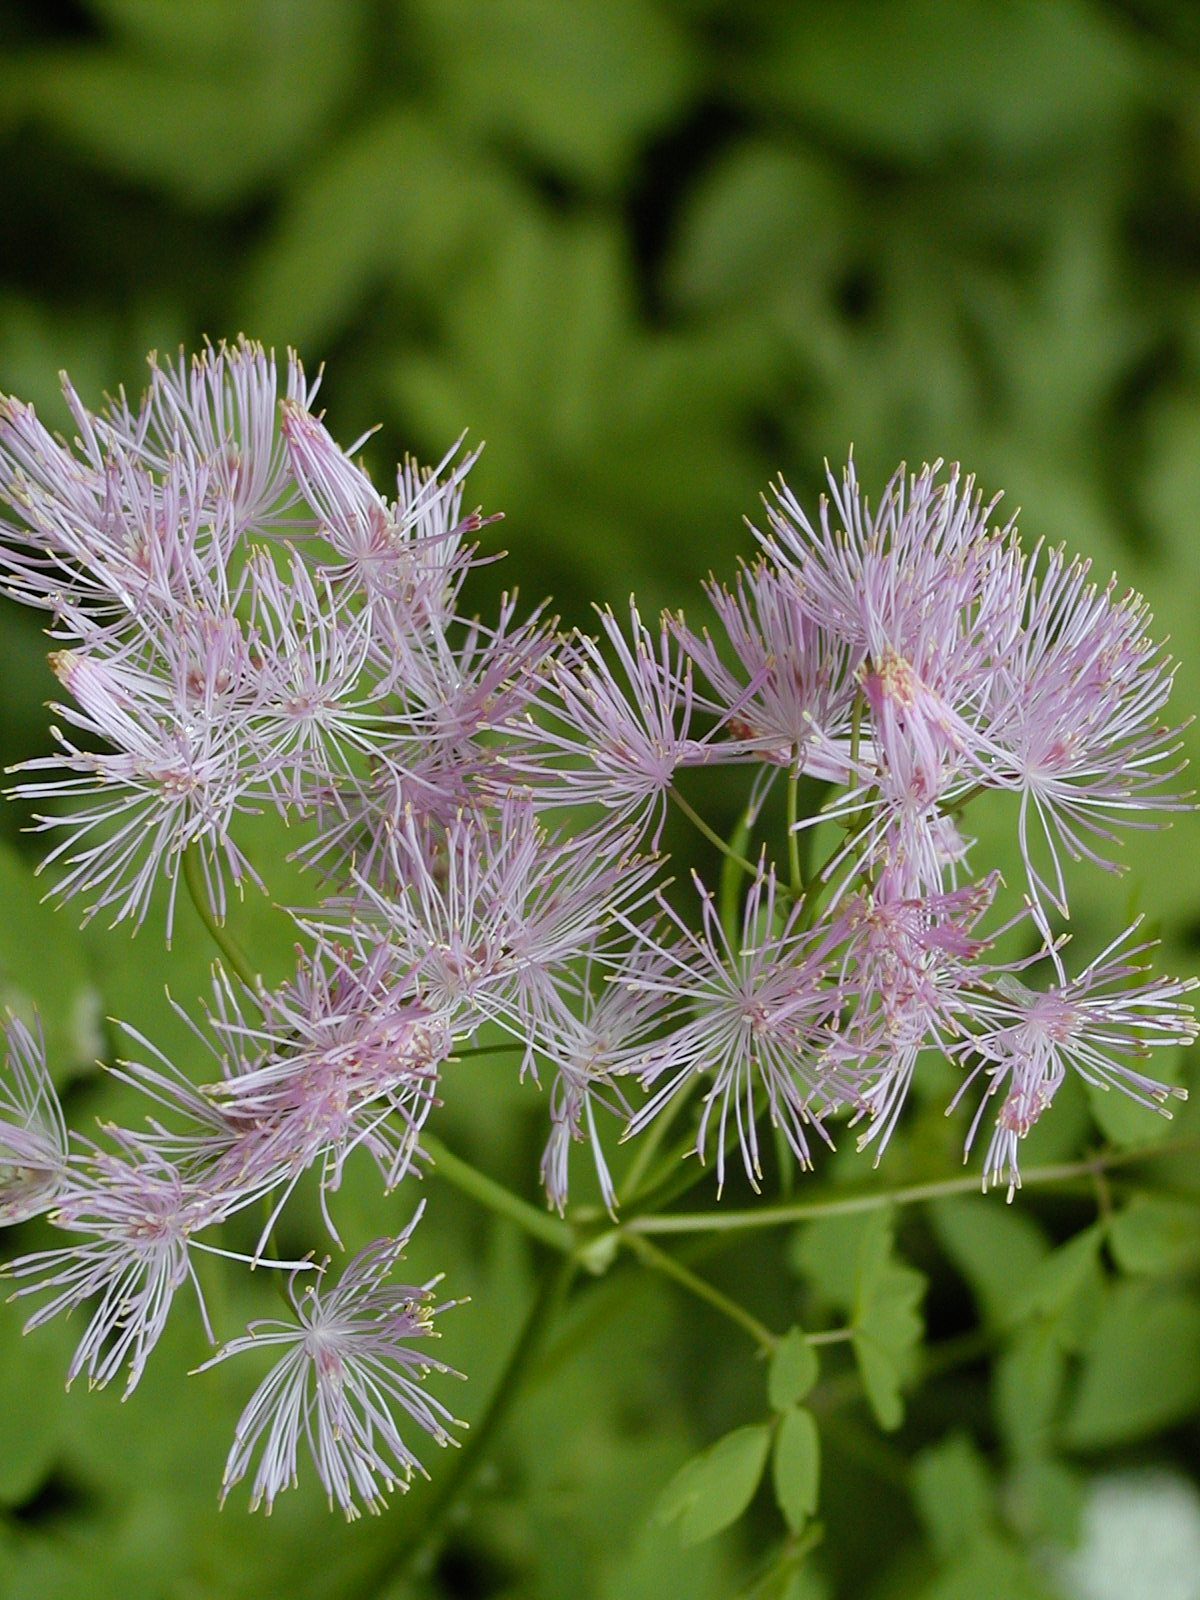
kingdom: Plantae
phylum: Tracheophyta
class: Magnoliopsida
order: Ranunculales
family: Ranunculaceae
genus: Thalictrum
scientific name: Thalictrum aquilegiifolium
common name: French meadow-rue
